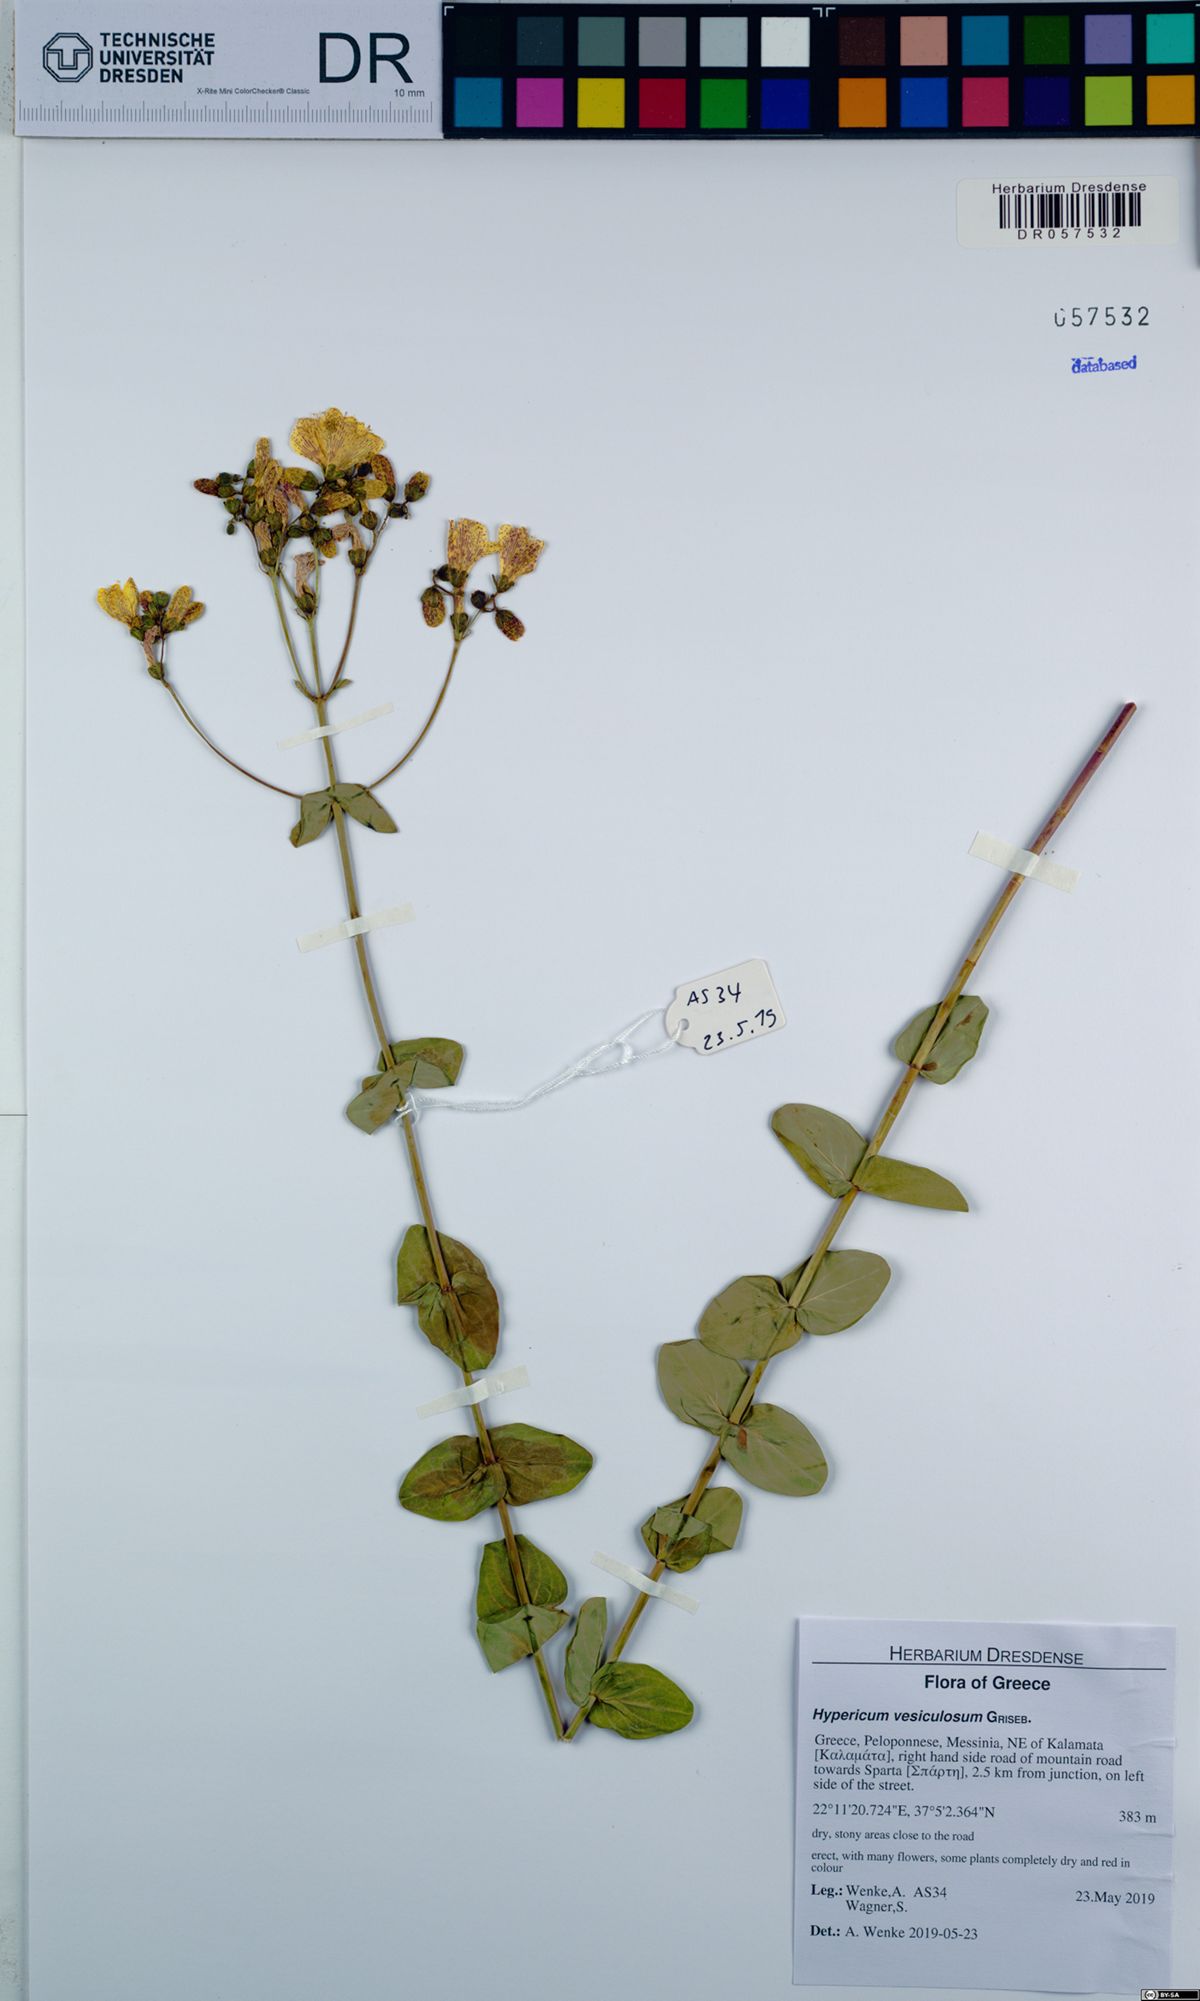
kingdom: Plantae
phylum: Tracheophyta
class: Magnoliopsida
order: Malpighiales
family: Hypericaceae
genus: Hypericum
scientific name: Hypericum vesiculosum
